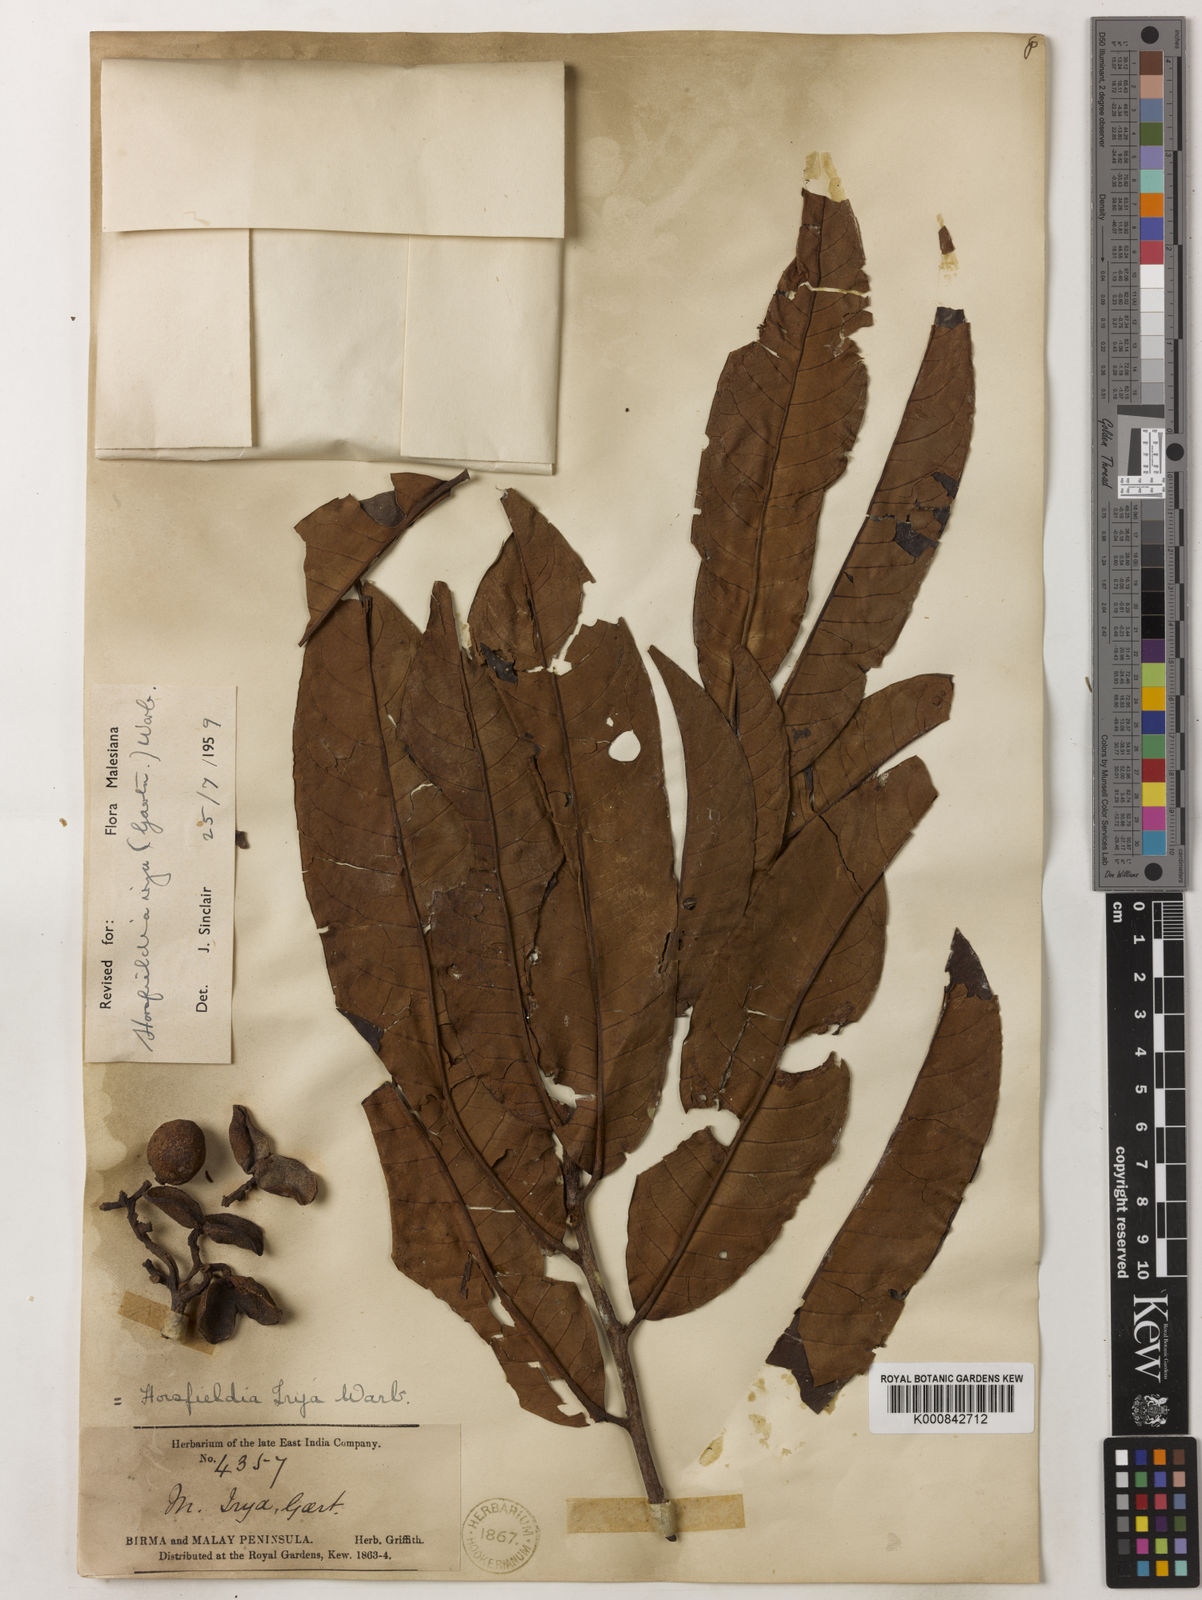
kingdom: Plantae
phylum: Tracheophyta
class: Magnoliopsida
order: Magnoliales
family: Myristicaceae
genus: Horsfieldia
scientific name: Horsfieldia irya
